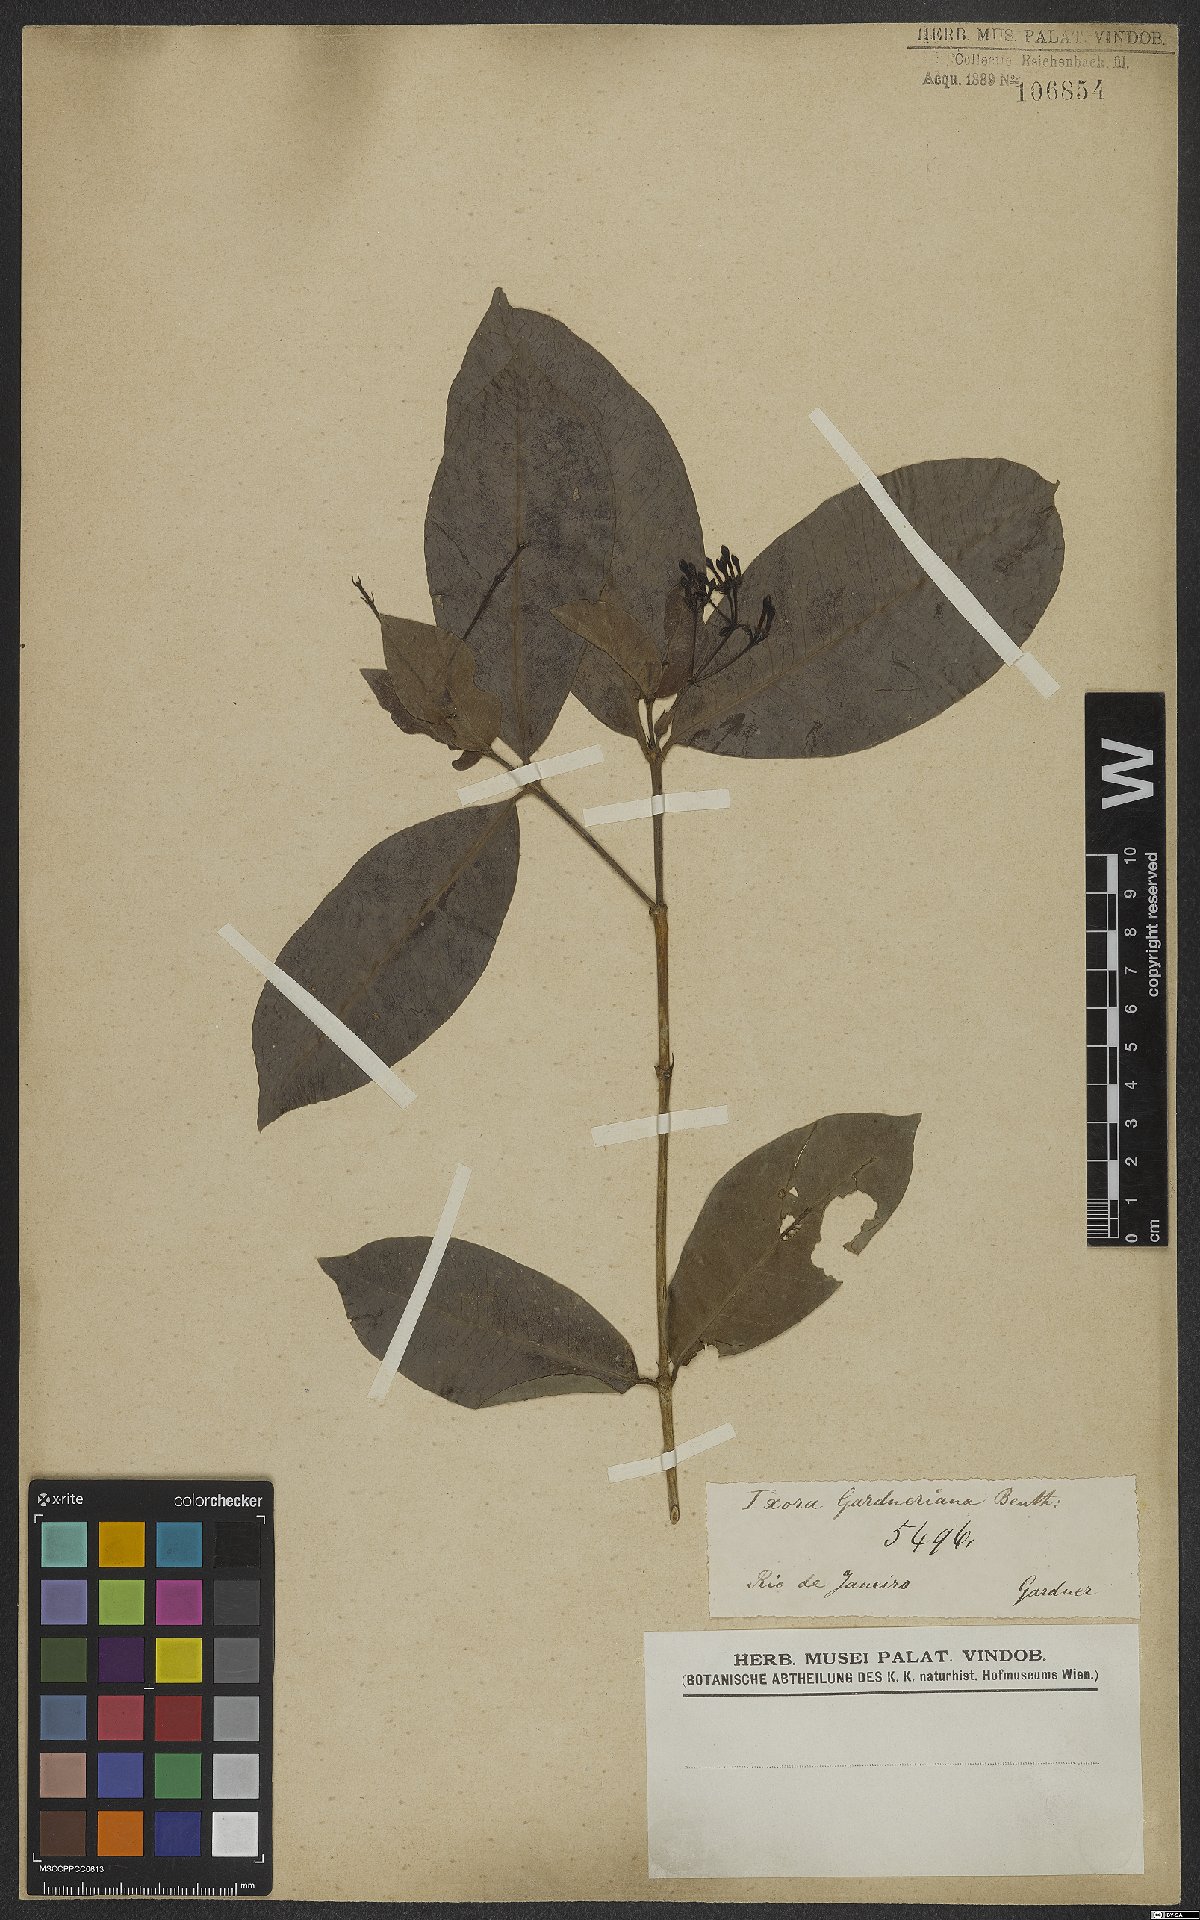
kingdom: Plantae
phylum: Tracheophyta
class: Magnoliopsida
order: Gentianales
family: Rubiaceae
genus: Ixora
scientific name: Ixora gardneriana
